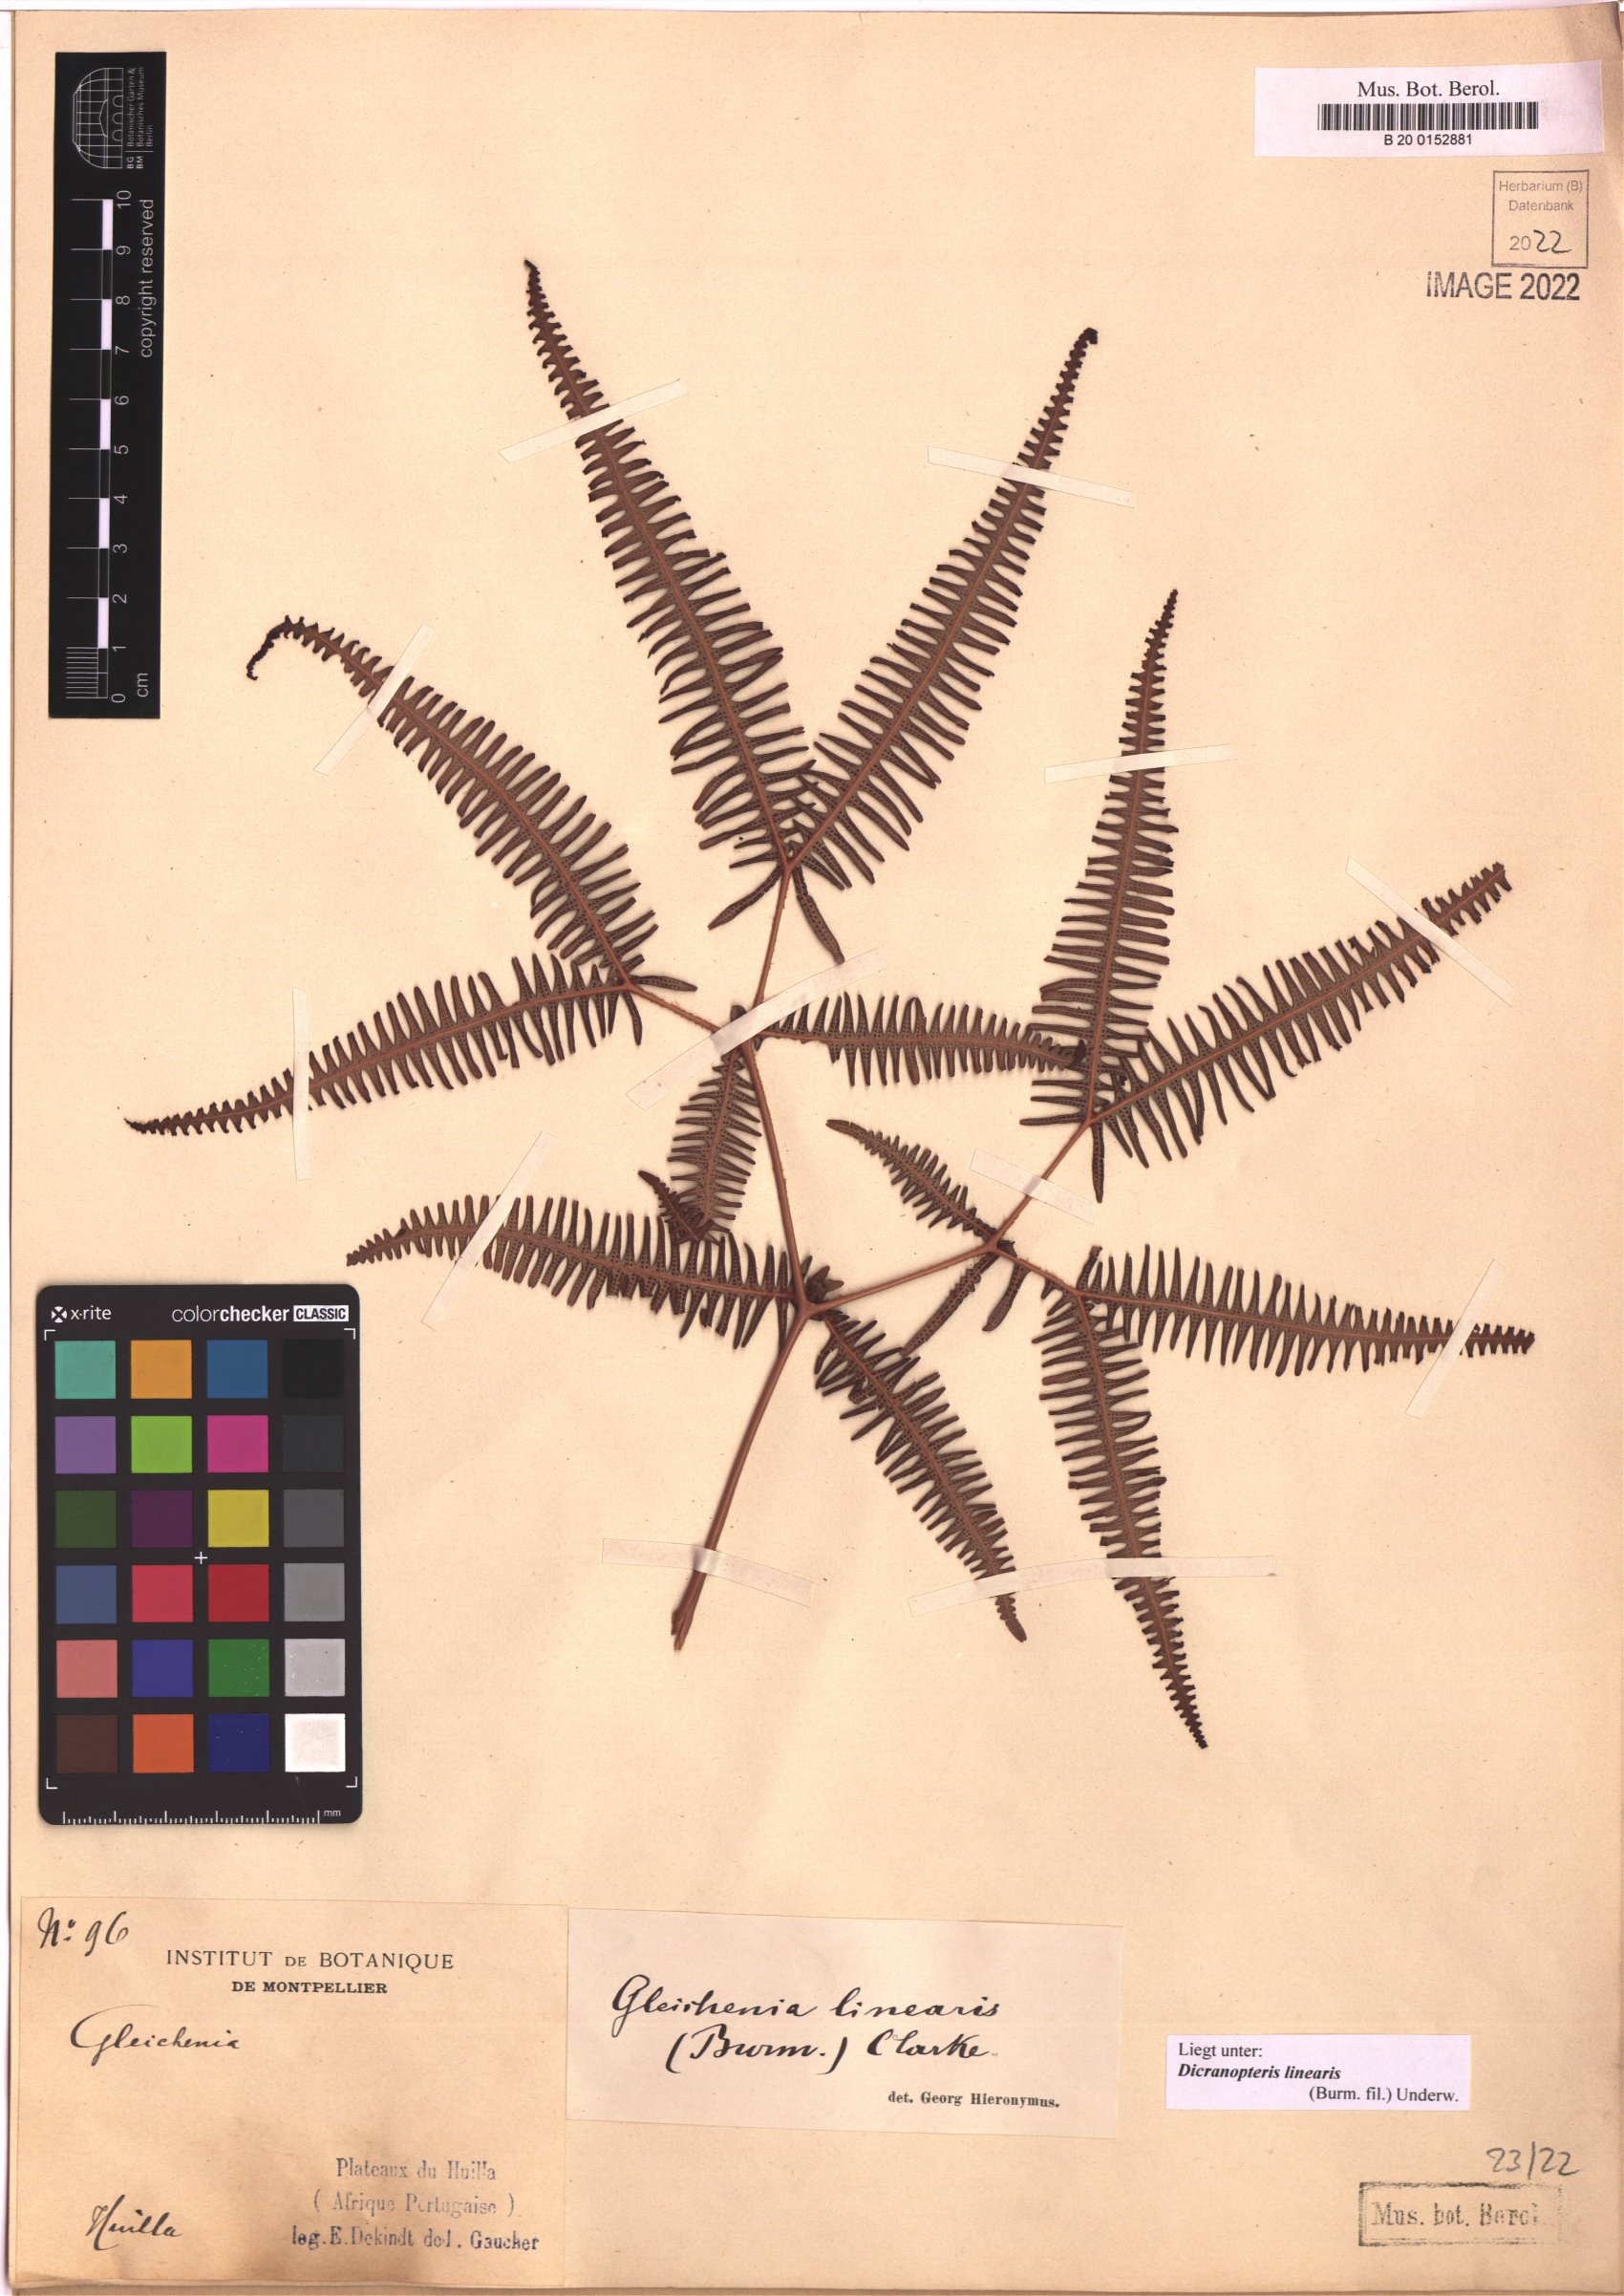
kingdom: Plantae
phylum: Tracheophyta
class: Polypodiopsida
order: Gleicheniales
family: Gleicheniaceae
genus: Dicranopteris
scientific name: Dicranopteris linearis
